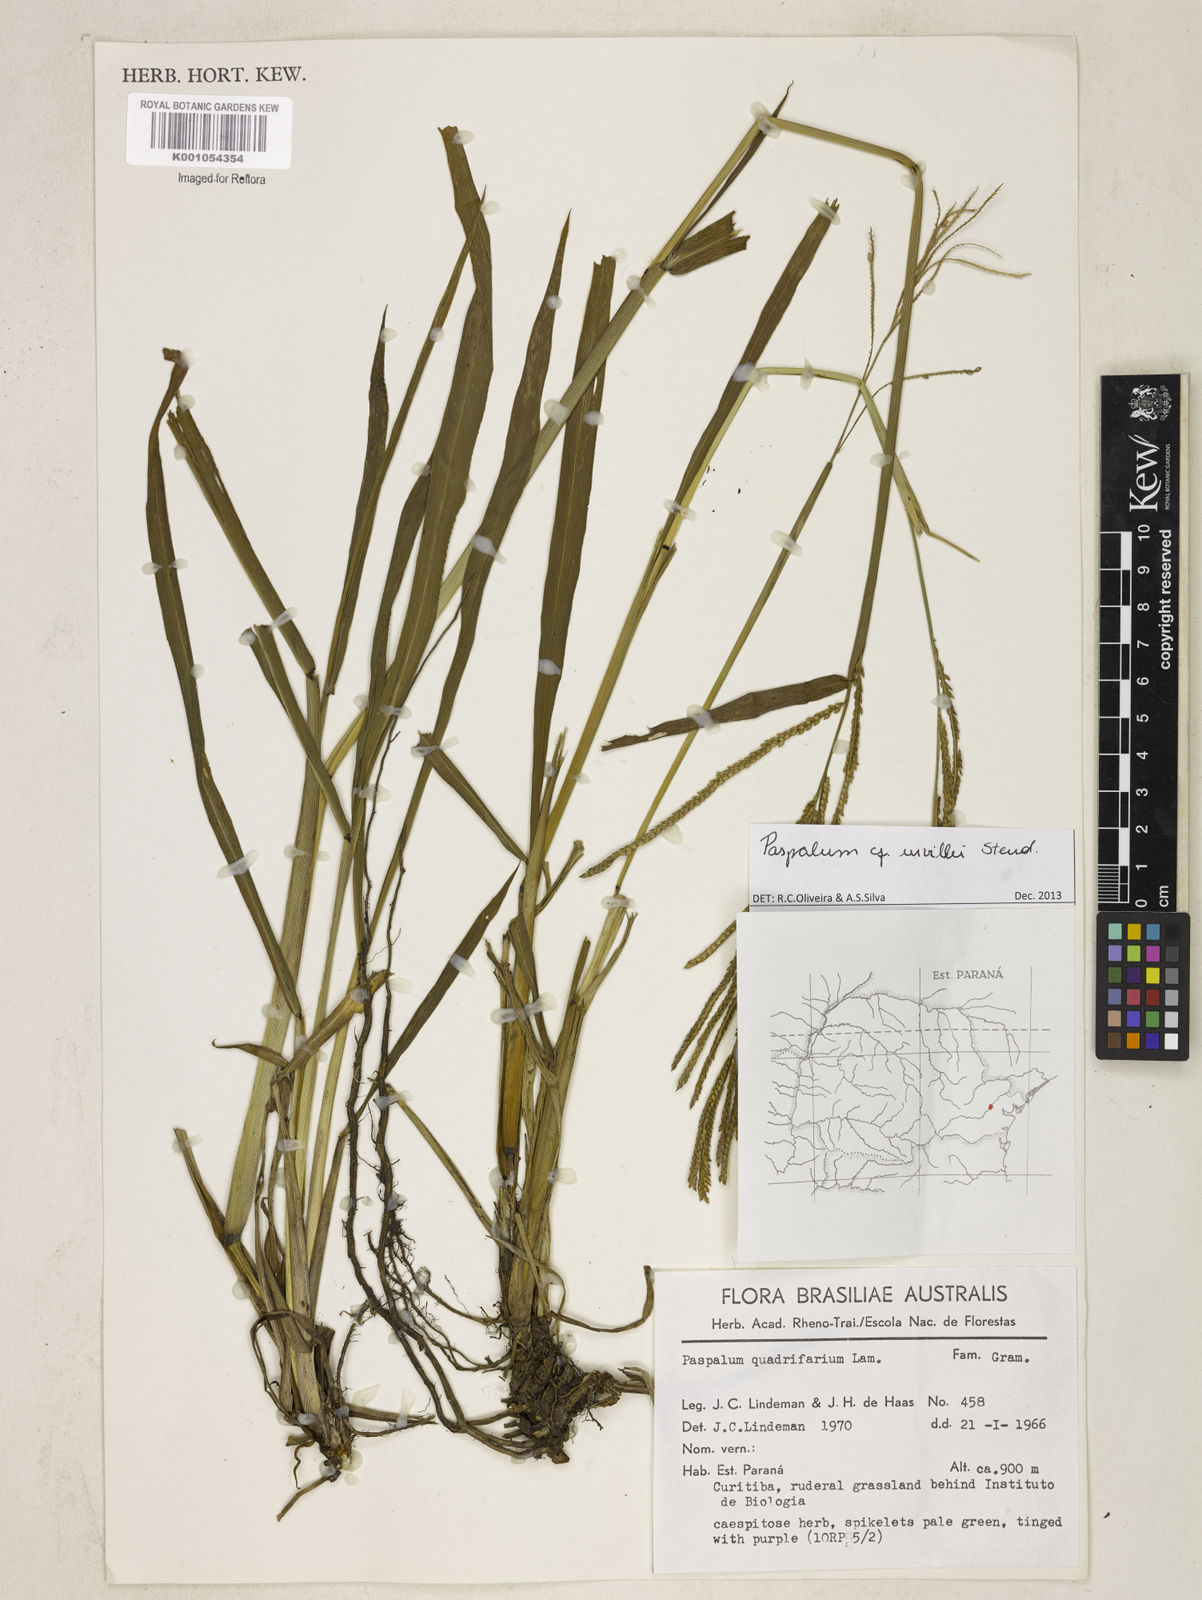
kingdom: Plantae
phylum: Tracheophyta
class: Liliopsida
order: Poales
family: Poaceae
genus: Paspalum
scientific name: Paspalum urvillei
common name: Vasey's grass
